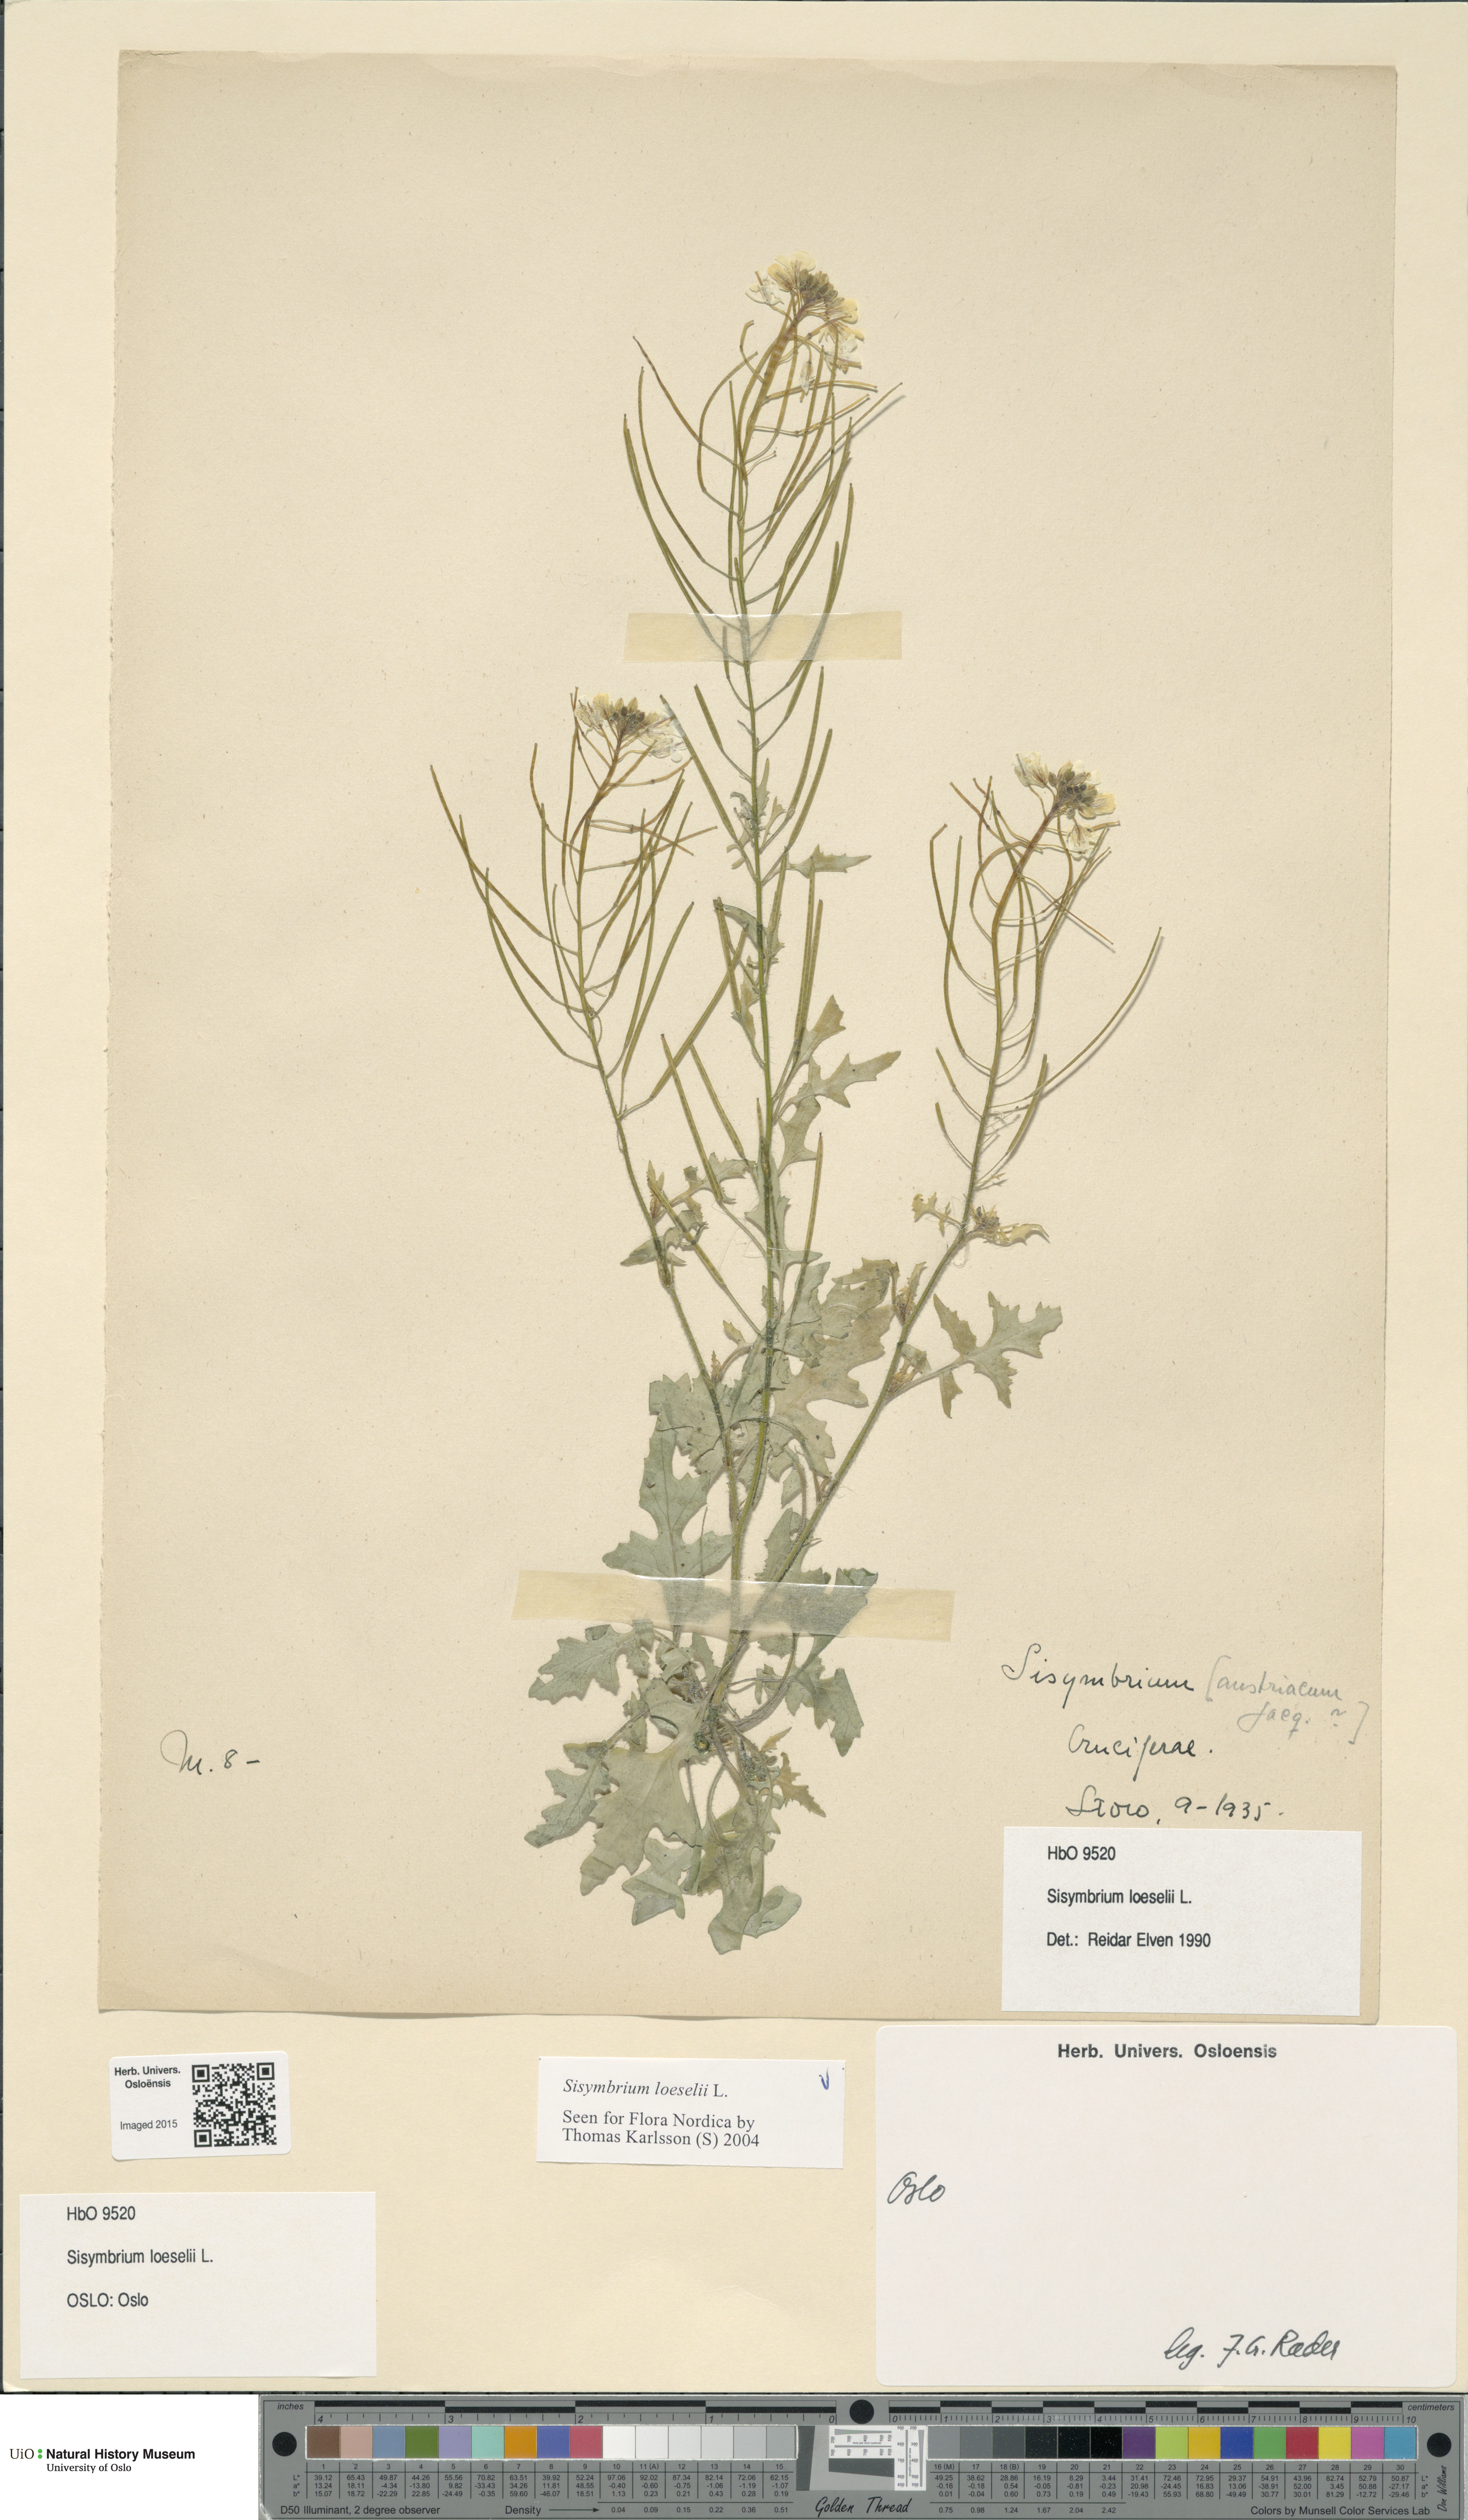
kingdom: Plantae
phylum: Tracheophyta
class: Magnoliopsida
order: Brassicales
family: Brassicaceae
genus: Sisymbrium
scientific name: Sisymbrium loeselii
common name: False london-rocket
